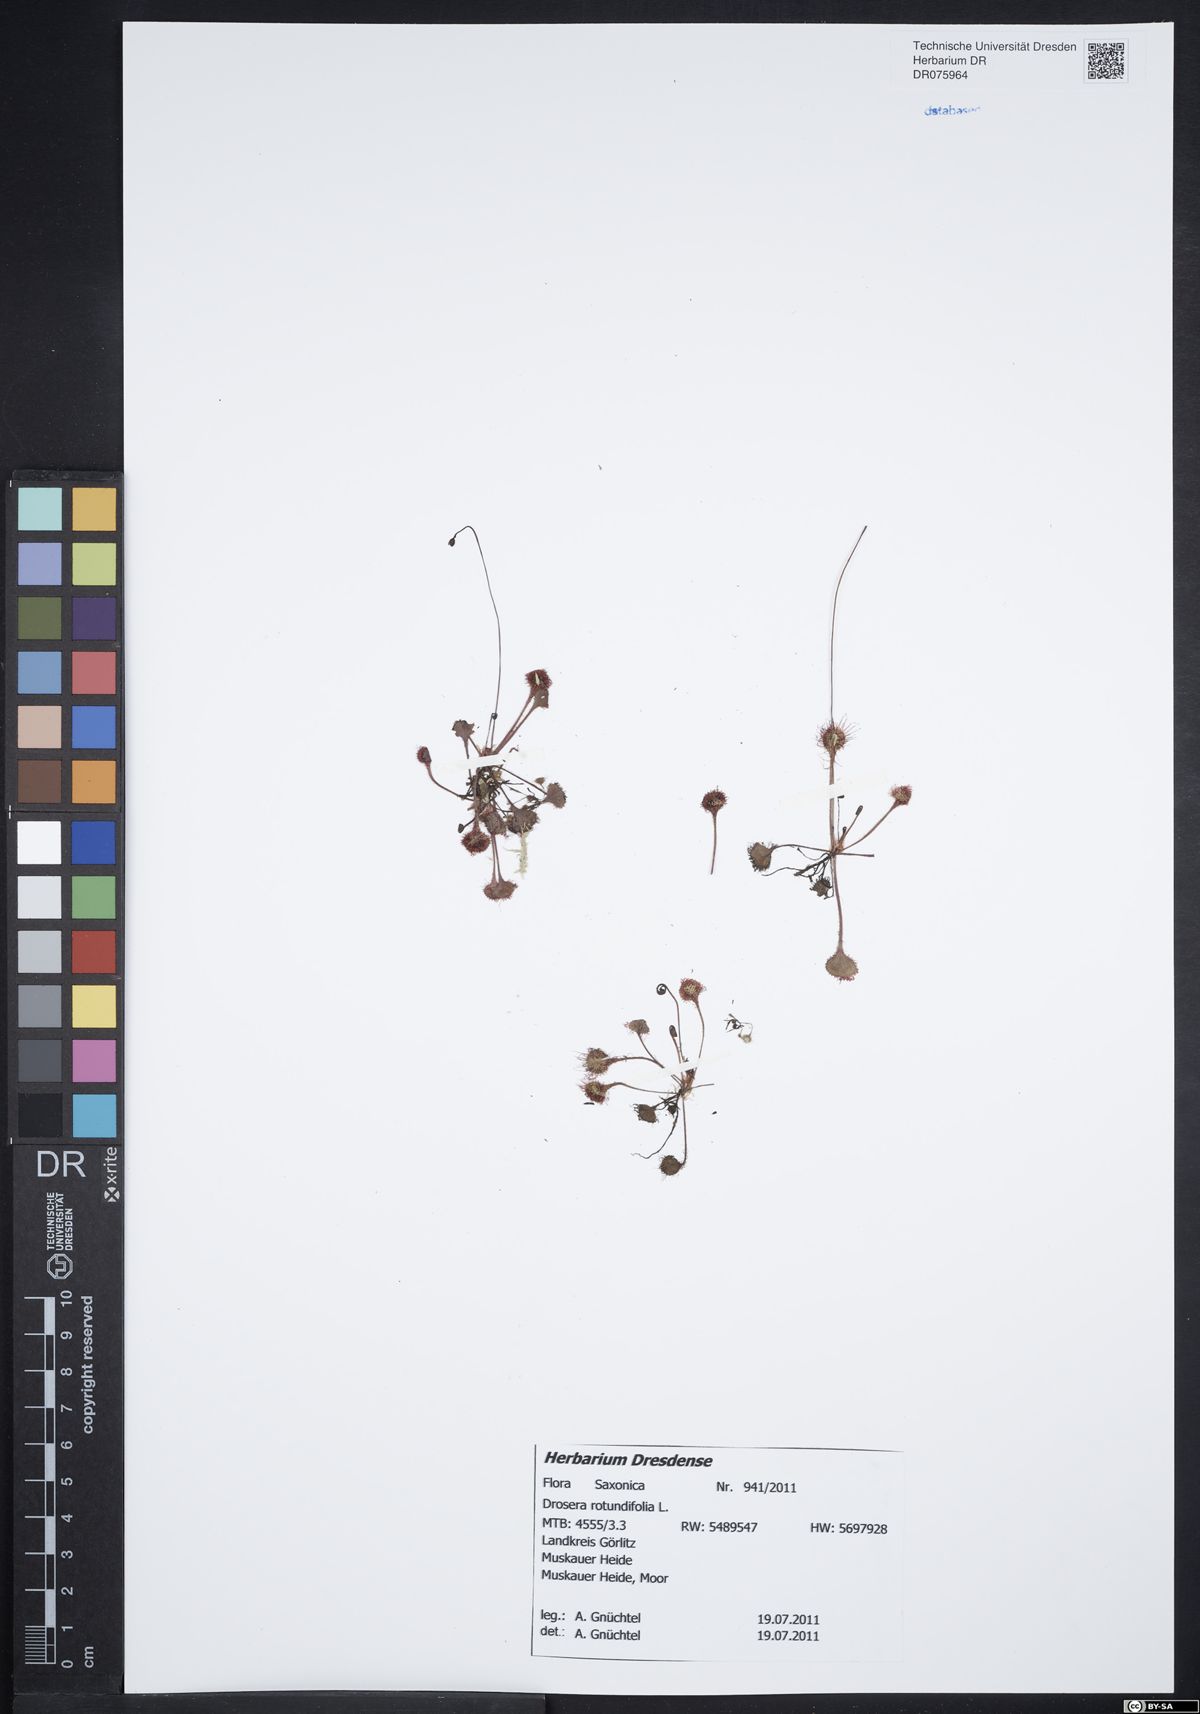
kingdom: Plantae
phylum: Tracheophyta
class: Magnoliopsida
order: Caryophyllales
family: Droseraceae
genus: Drosera
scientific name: Drosera rotundifolia
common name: Round-leaved sundew
